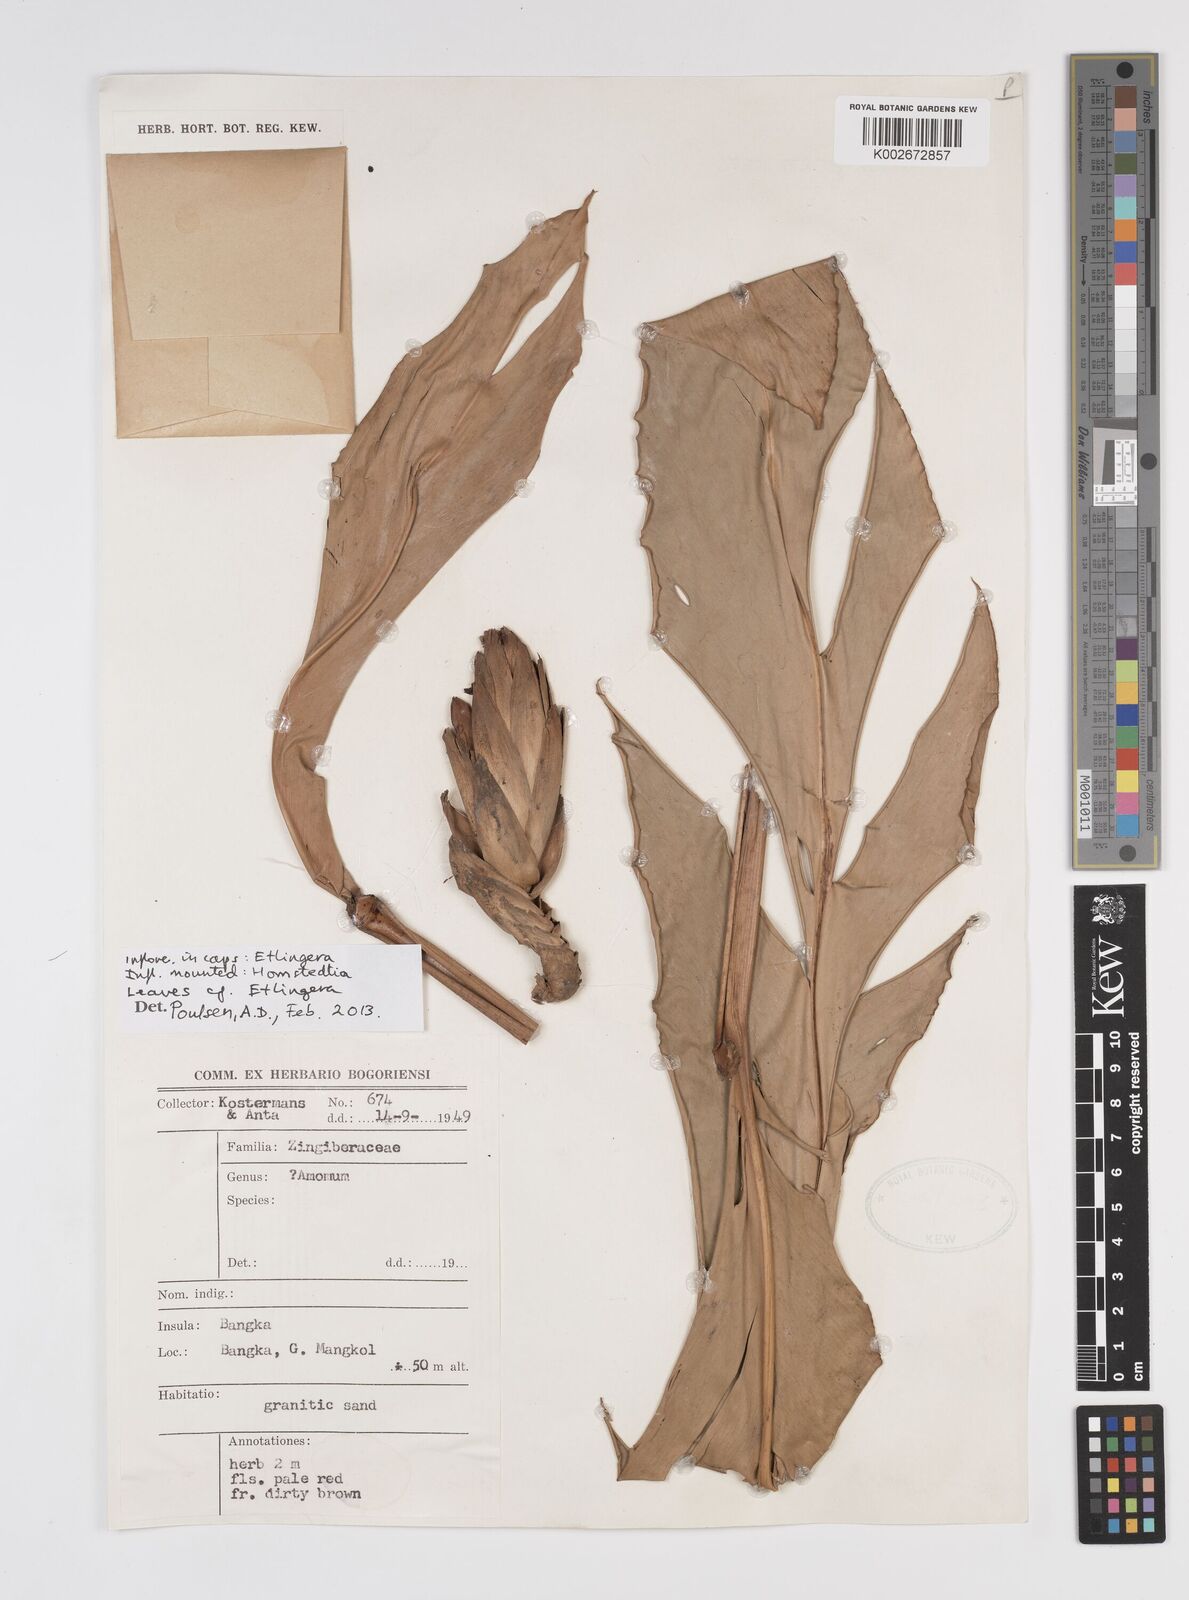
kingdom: Plantae
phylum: Tracheophyta
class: Liliopsida
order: Zingiberales
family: Zingiberaceae
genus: Etlingera
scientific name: Etlingera
